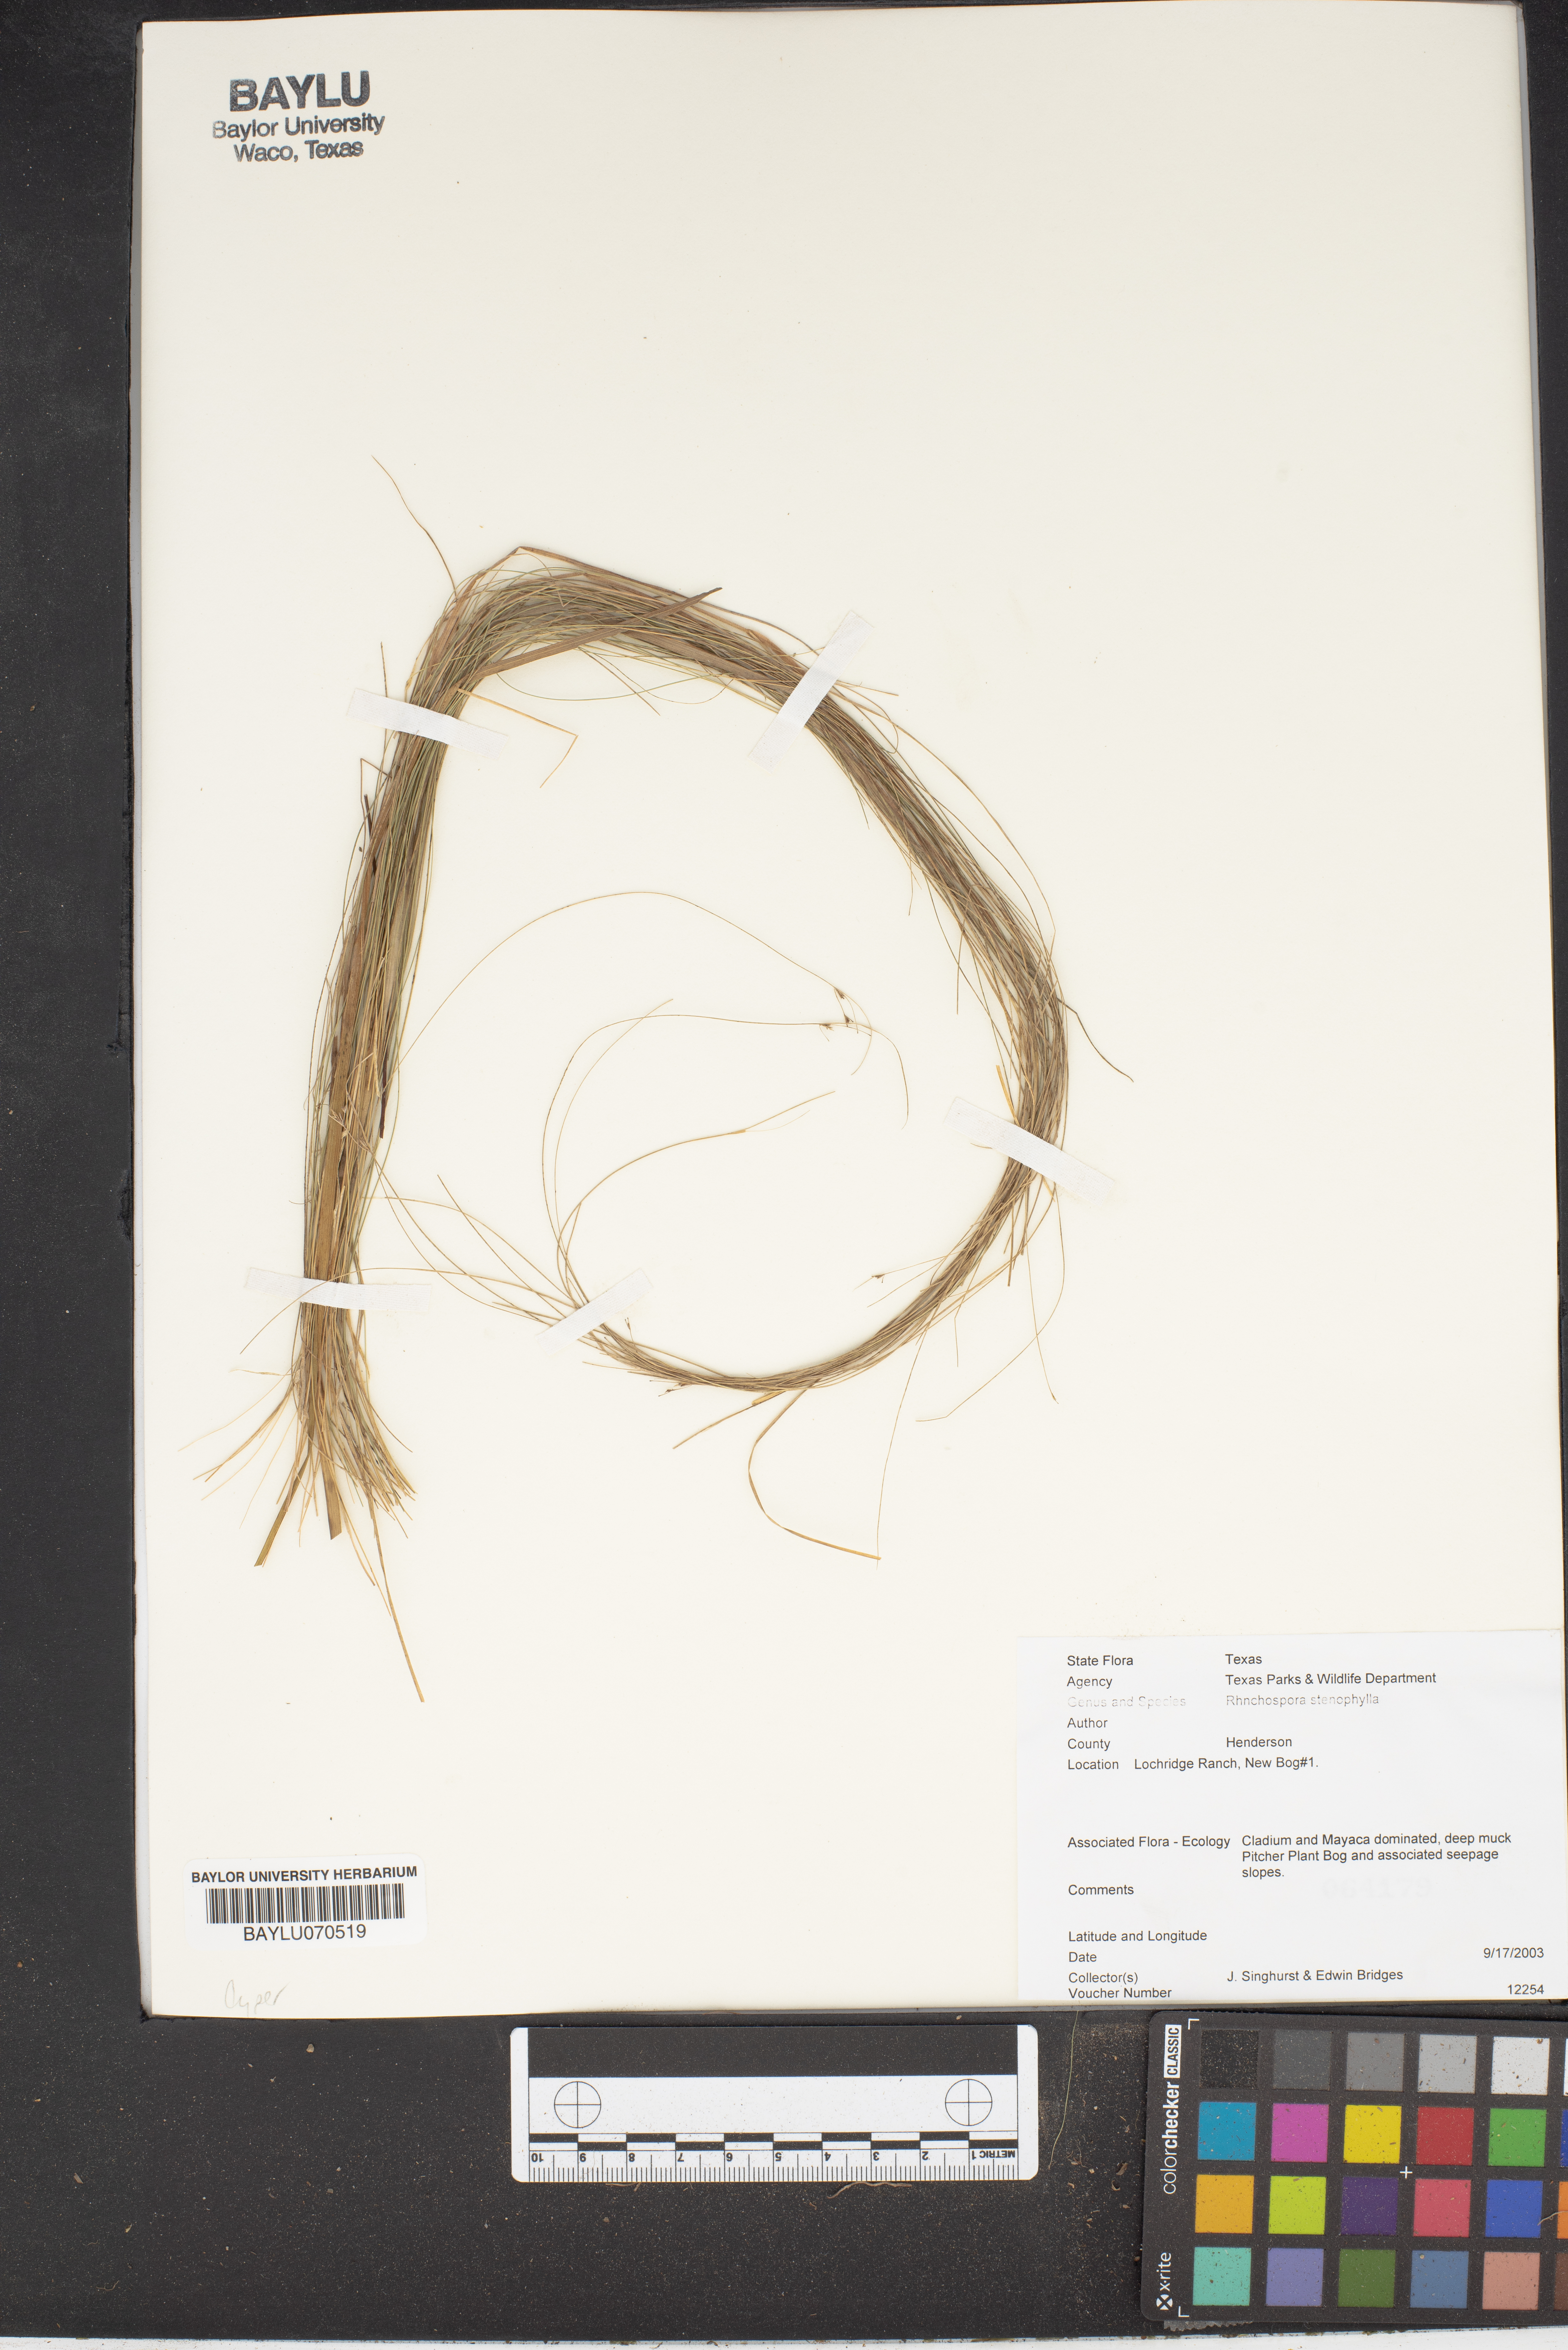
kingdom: Plantae
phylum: Tracheophyta
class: Liliopsida
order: Poales
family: Cyperaceae
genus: Rhynchospora
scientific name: Rhynchospora stenophylla
